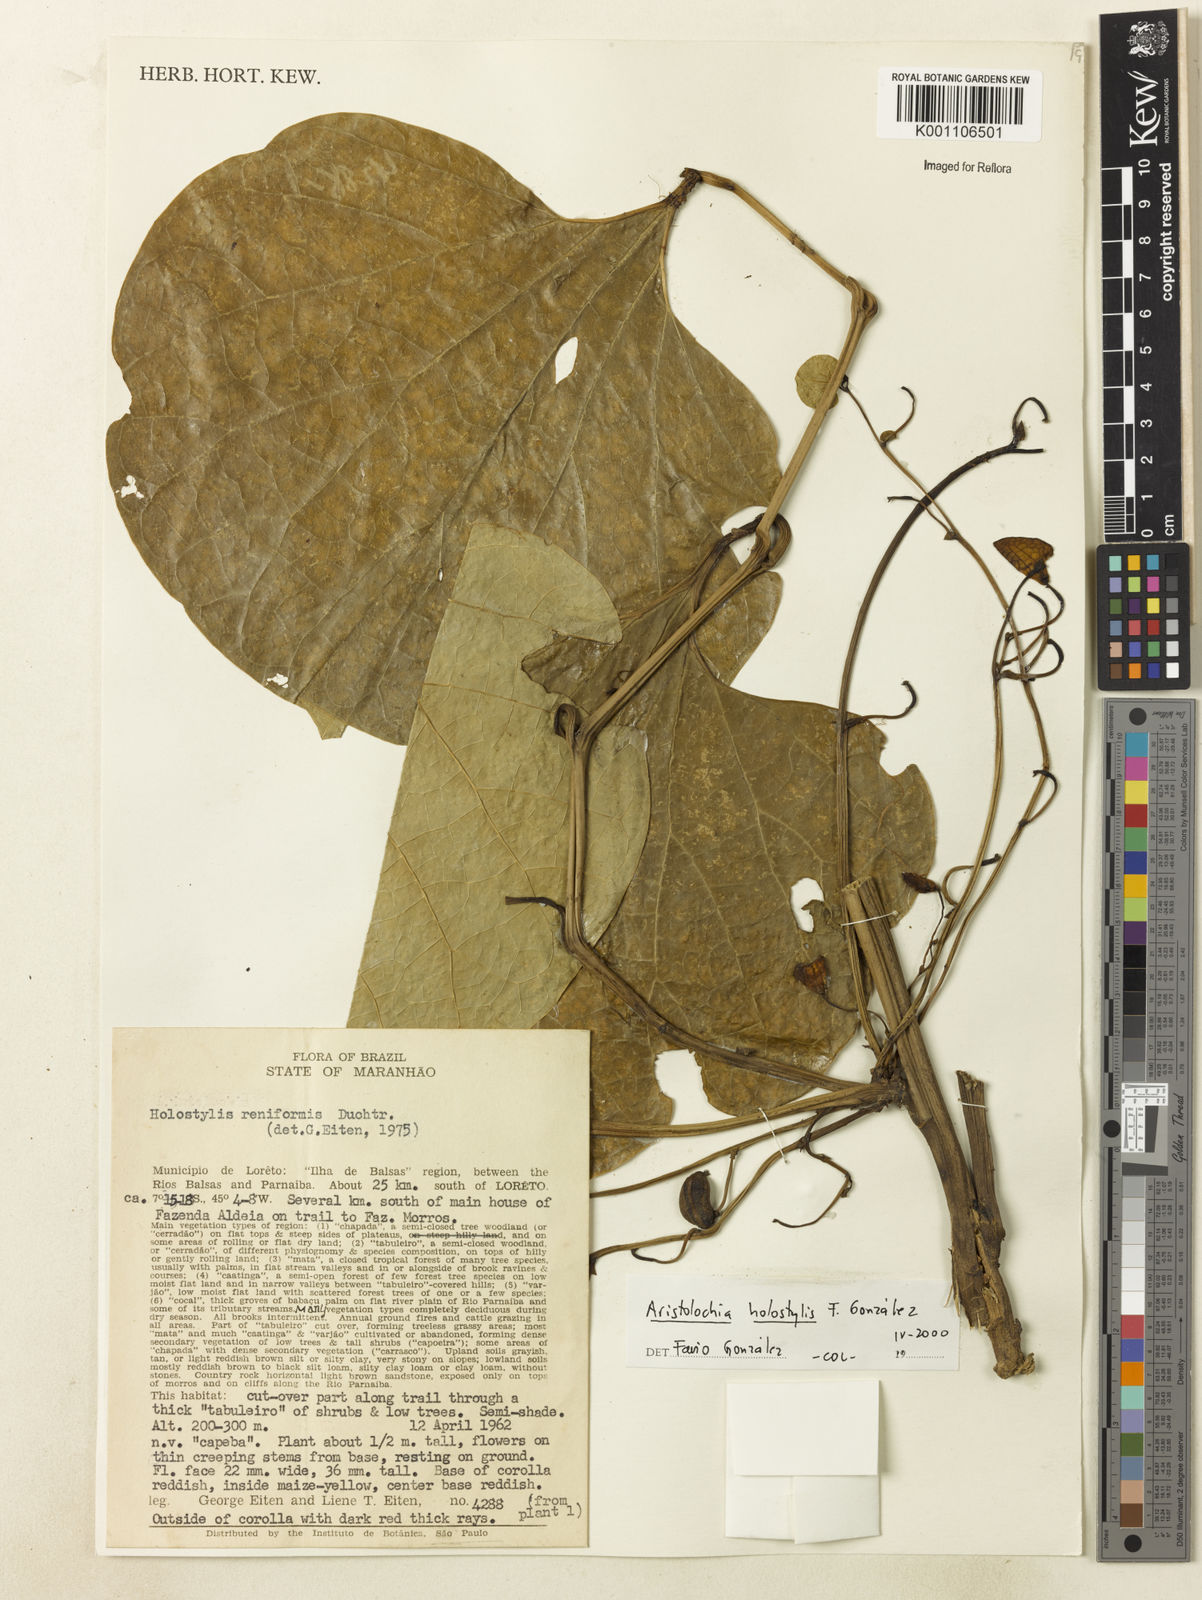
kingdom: Plantae
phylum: Tracheophyta
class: Magnoliopsida
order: Piperales
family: Aristolochiaceae
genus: Aristolochia
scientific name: Aristolochia
